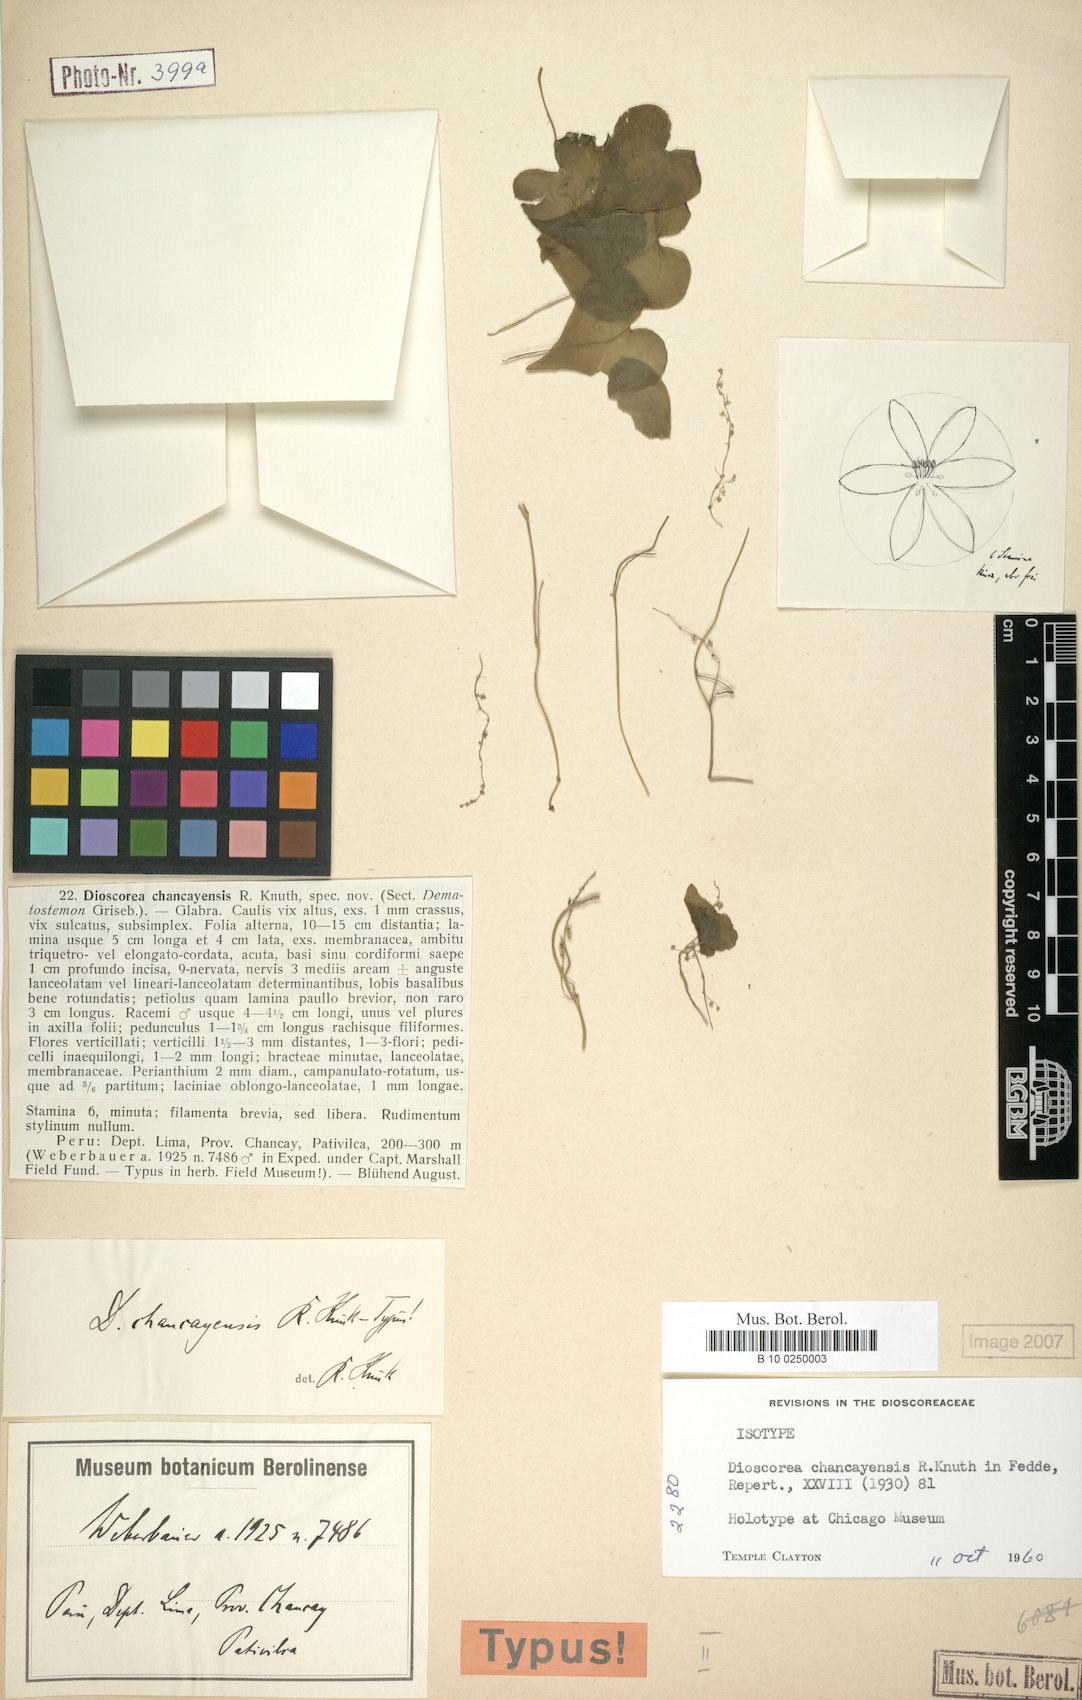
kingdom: Plantae
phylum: Tracheophyta
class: Liliopsida
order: Dioscoreales
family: Dioscoreaceae
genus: Dioscorea
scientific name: Dioscorea chancayensis
